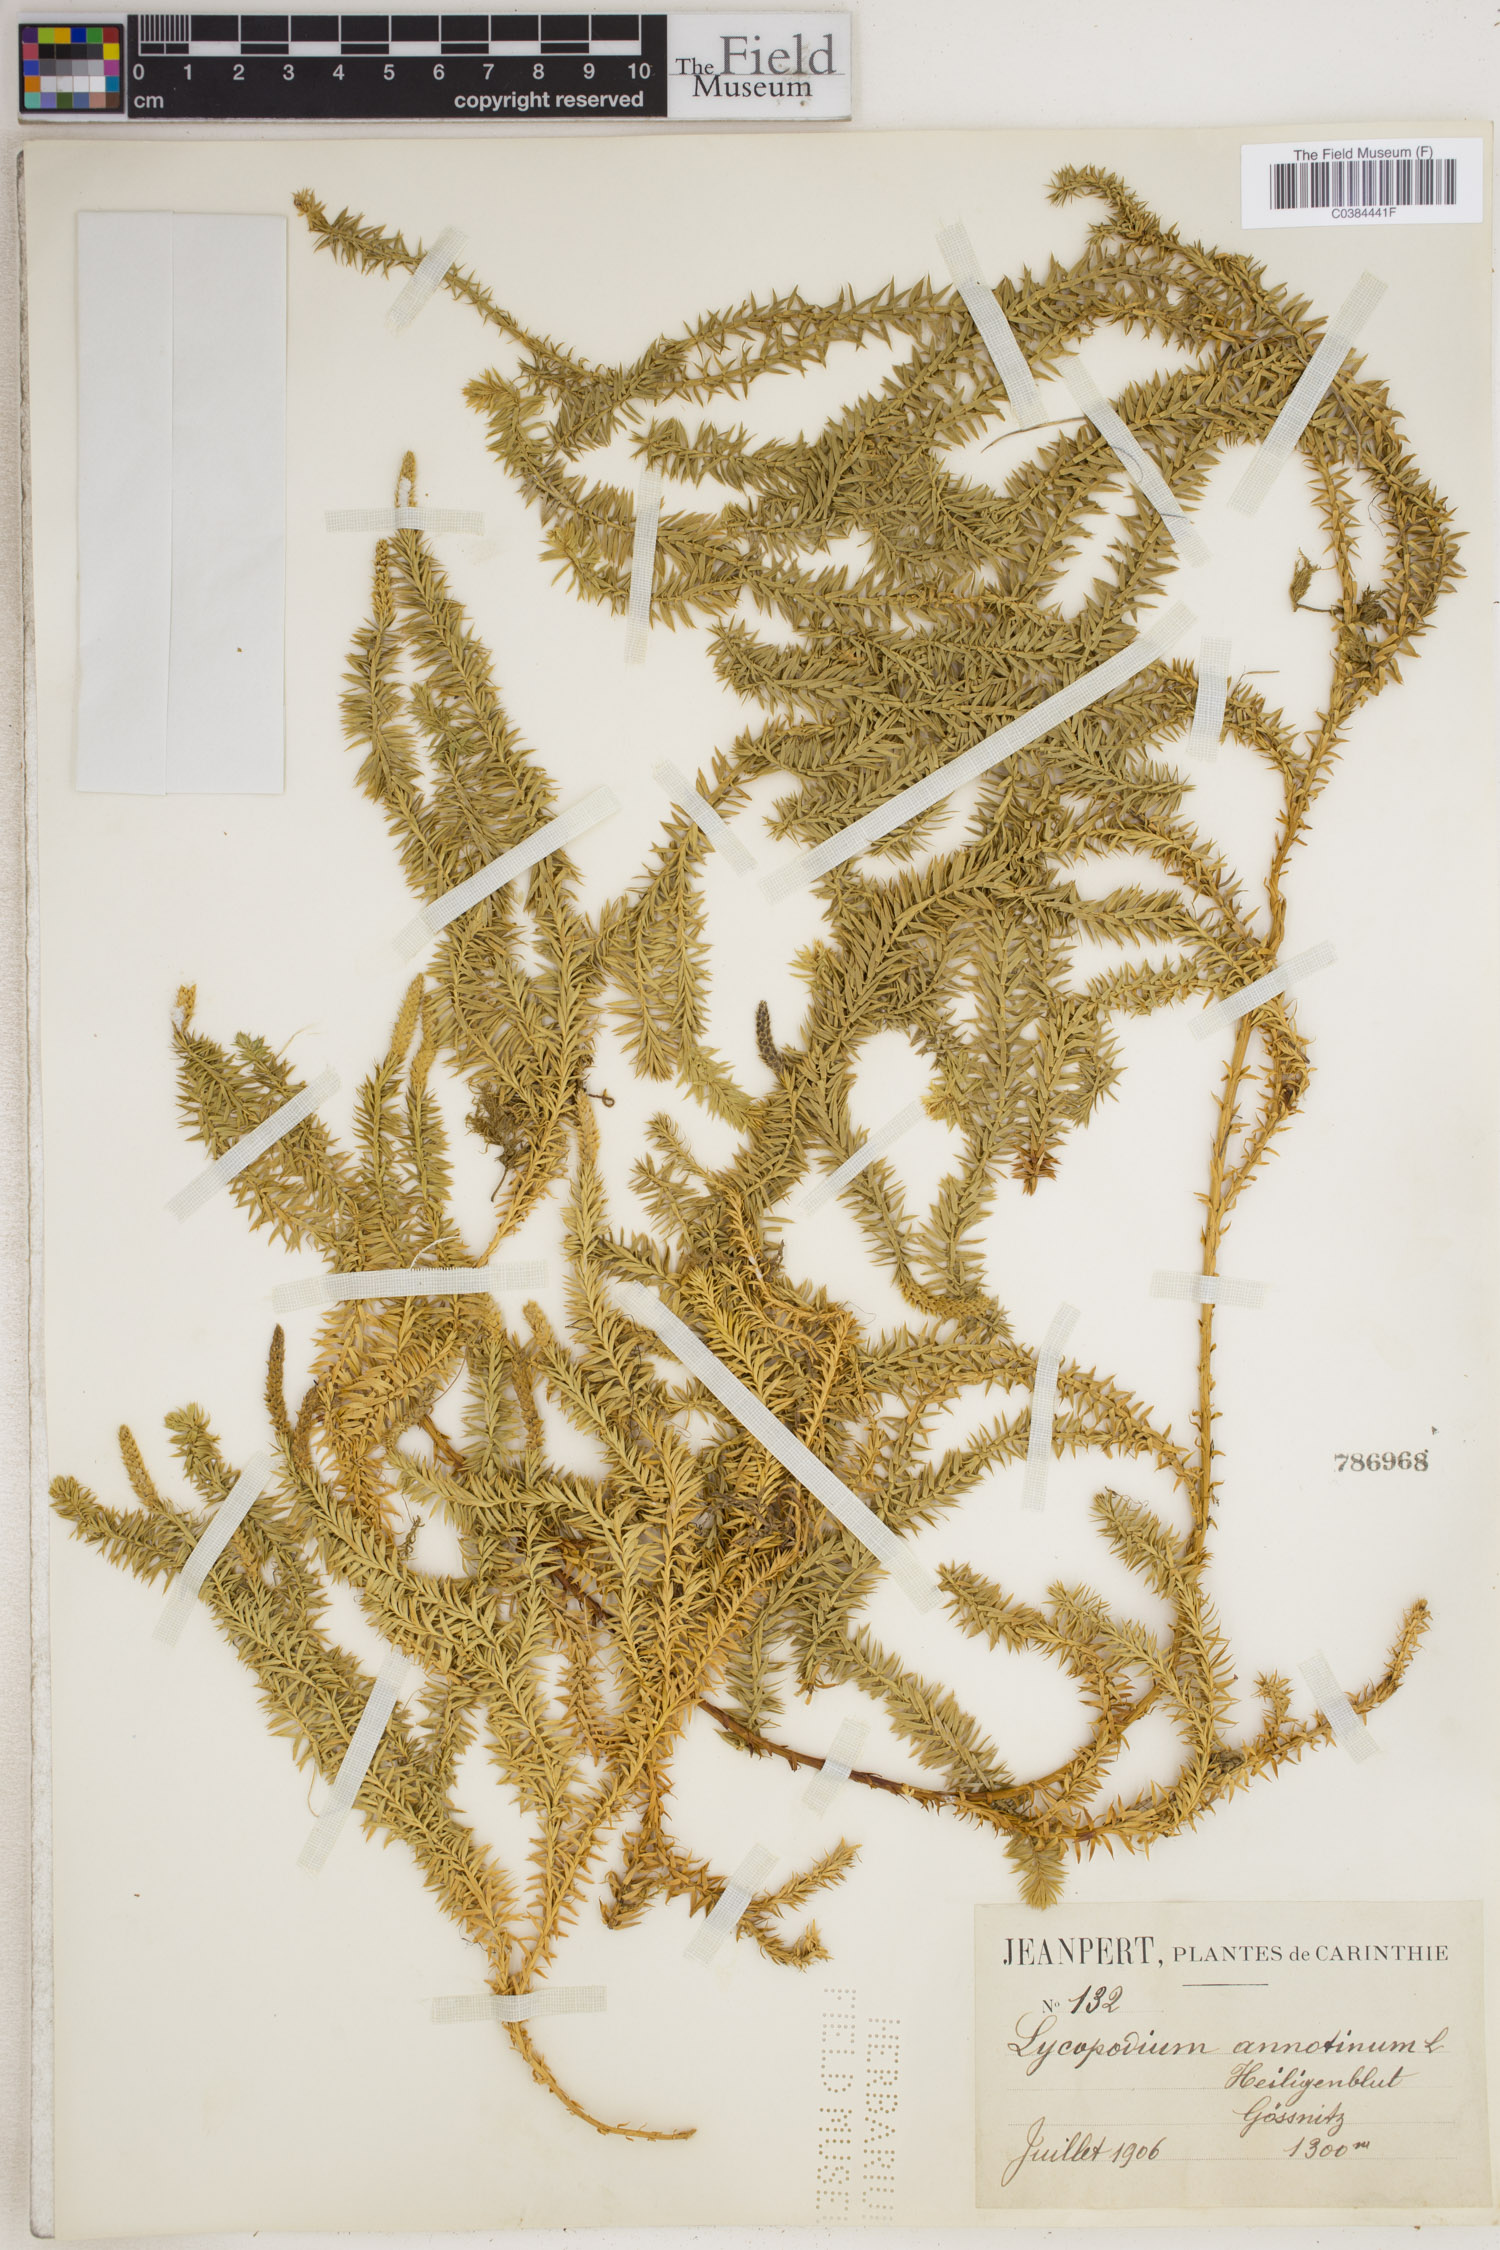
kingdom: Plantae
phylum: Tracheophyta
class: Lycopodiopsida
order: Lycopodiales
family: Lycopodiaceae
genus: Spinulum
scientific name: Spinulum annotinum
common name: Interrupted club-moss
